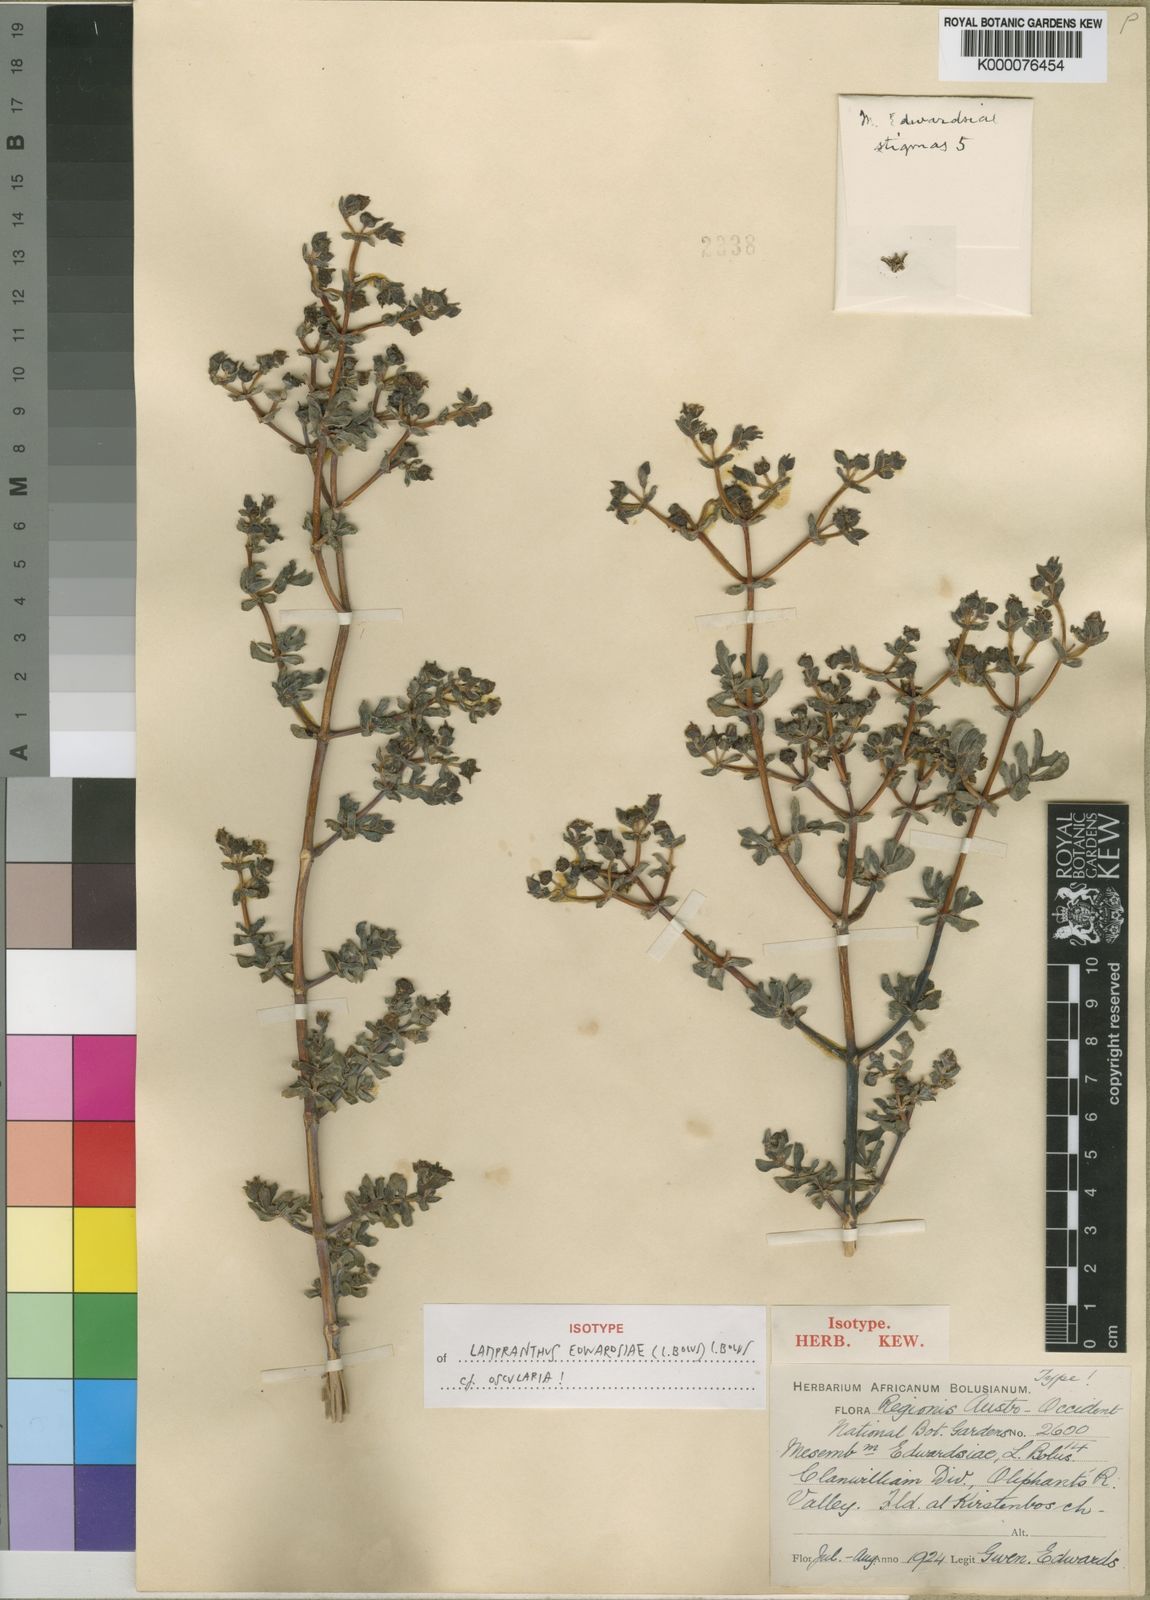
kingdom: Plantae
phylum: Tracheophyta
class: Magnoliopsida
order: Caryophyllales
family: Aizoaceae
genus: Lampranthus
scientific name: Lampranthus edwardsiae
